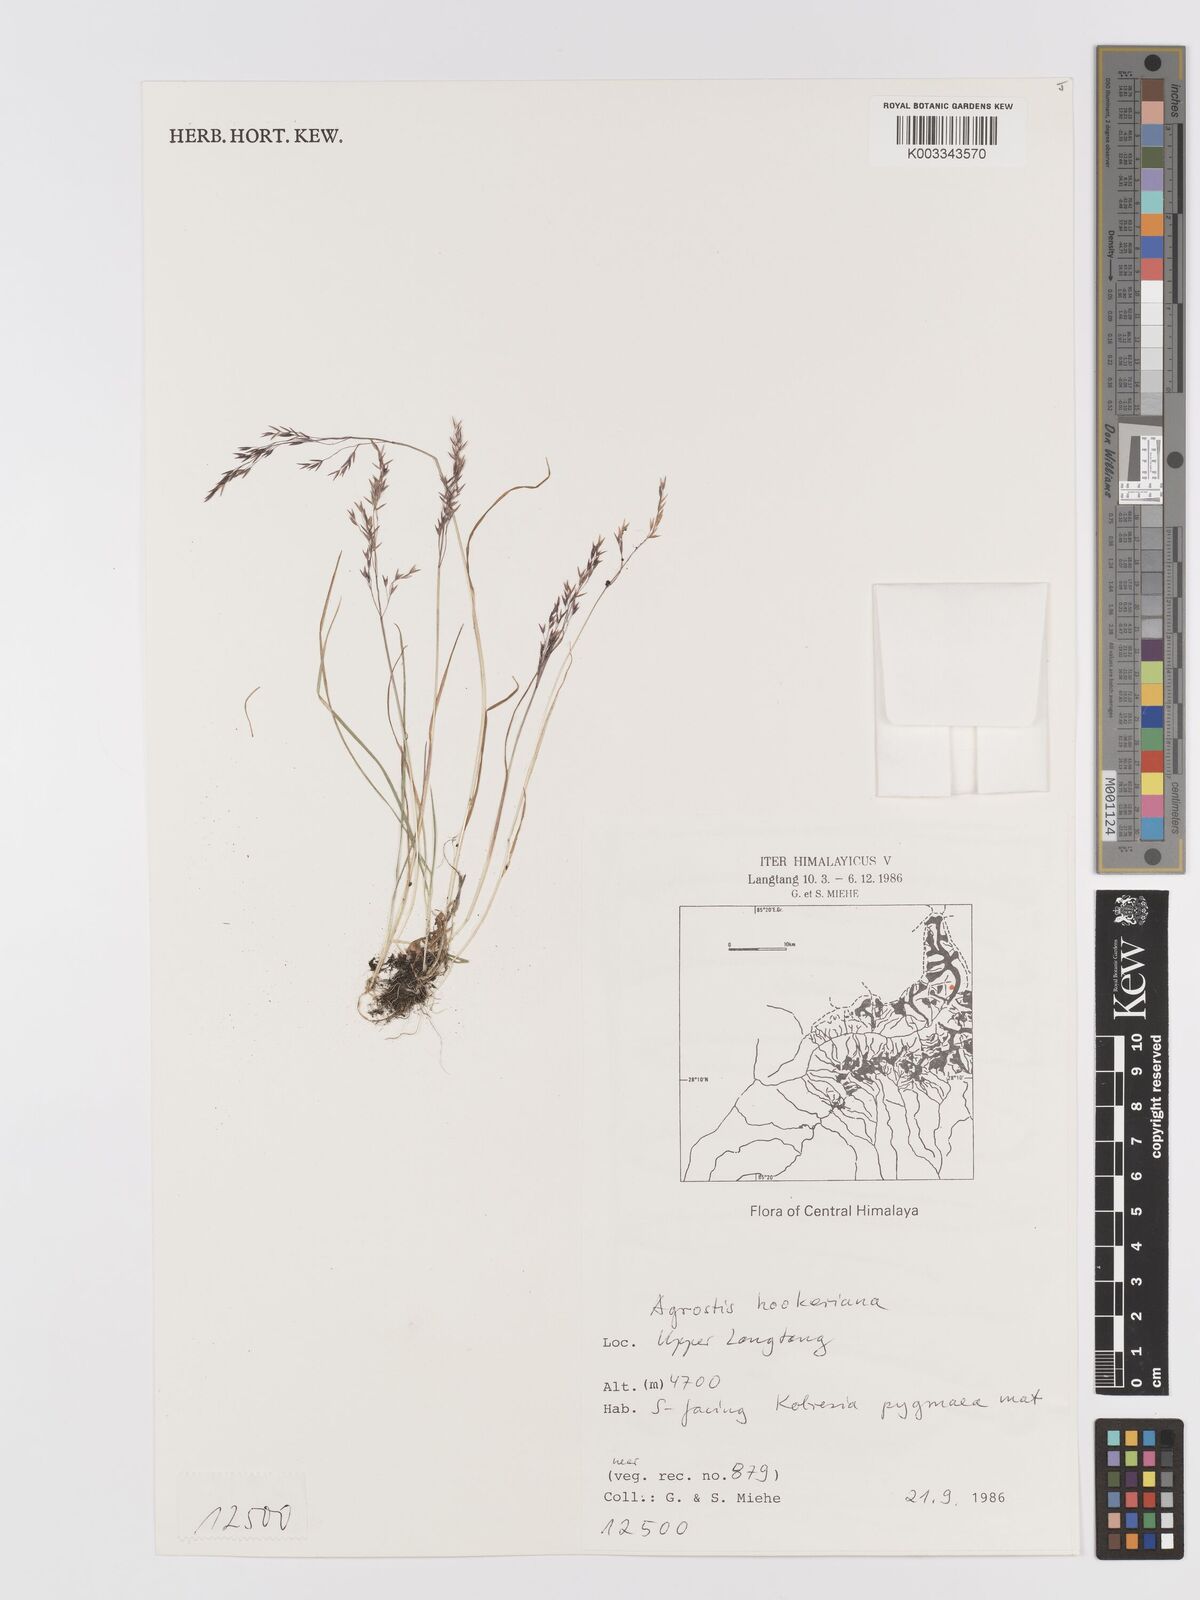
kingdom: Plantae
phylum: Tracheophyta
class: Liliopsida
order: Poales
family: Poaceae
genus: Agrostis
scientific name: Agrostis hookeriana
